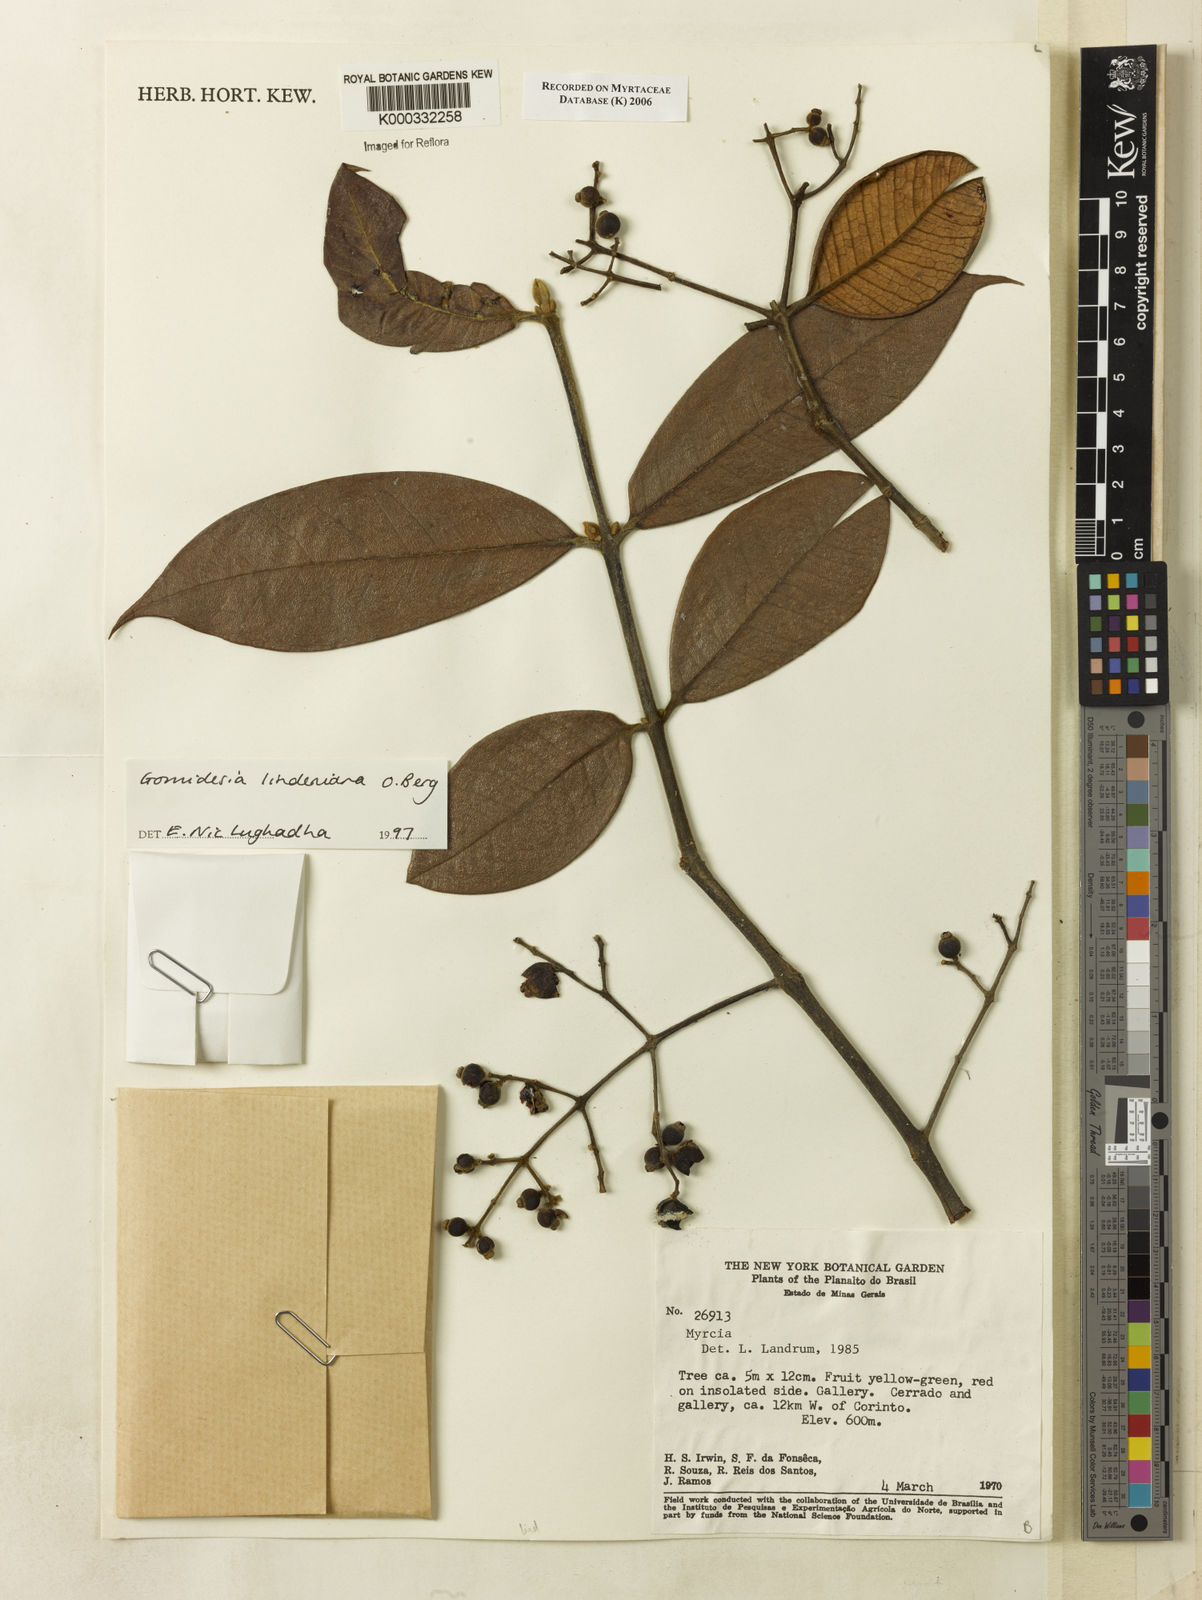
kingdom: Plantae
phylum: Tracheophyta
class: Magnoliopsida
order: Myrtales
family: Myrtaceae
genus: Myrcia
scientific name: Myrcia fenzliana
